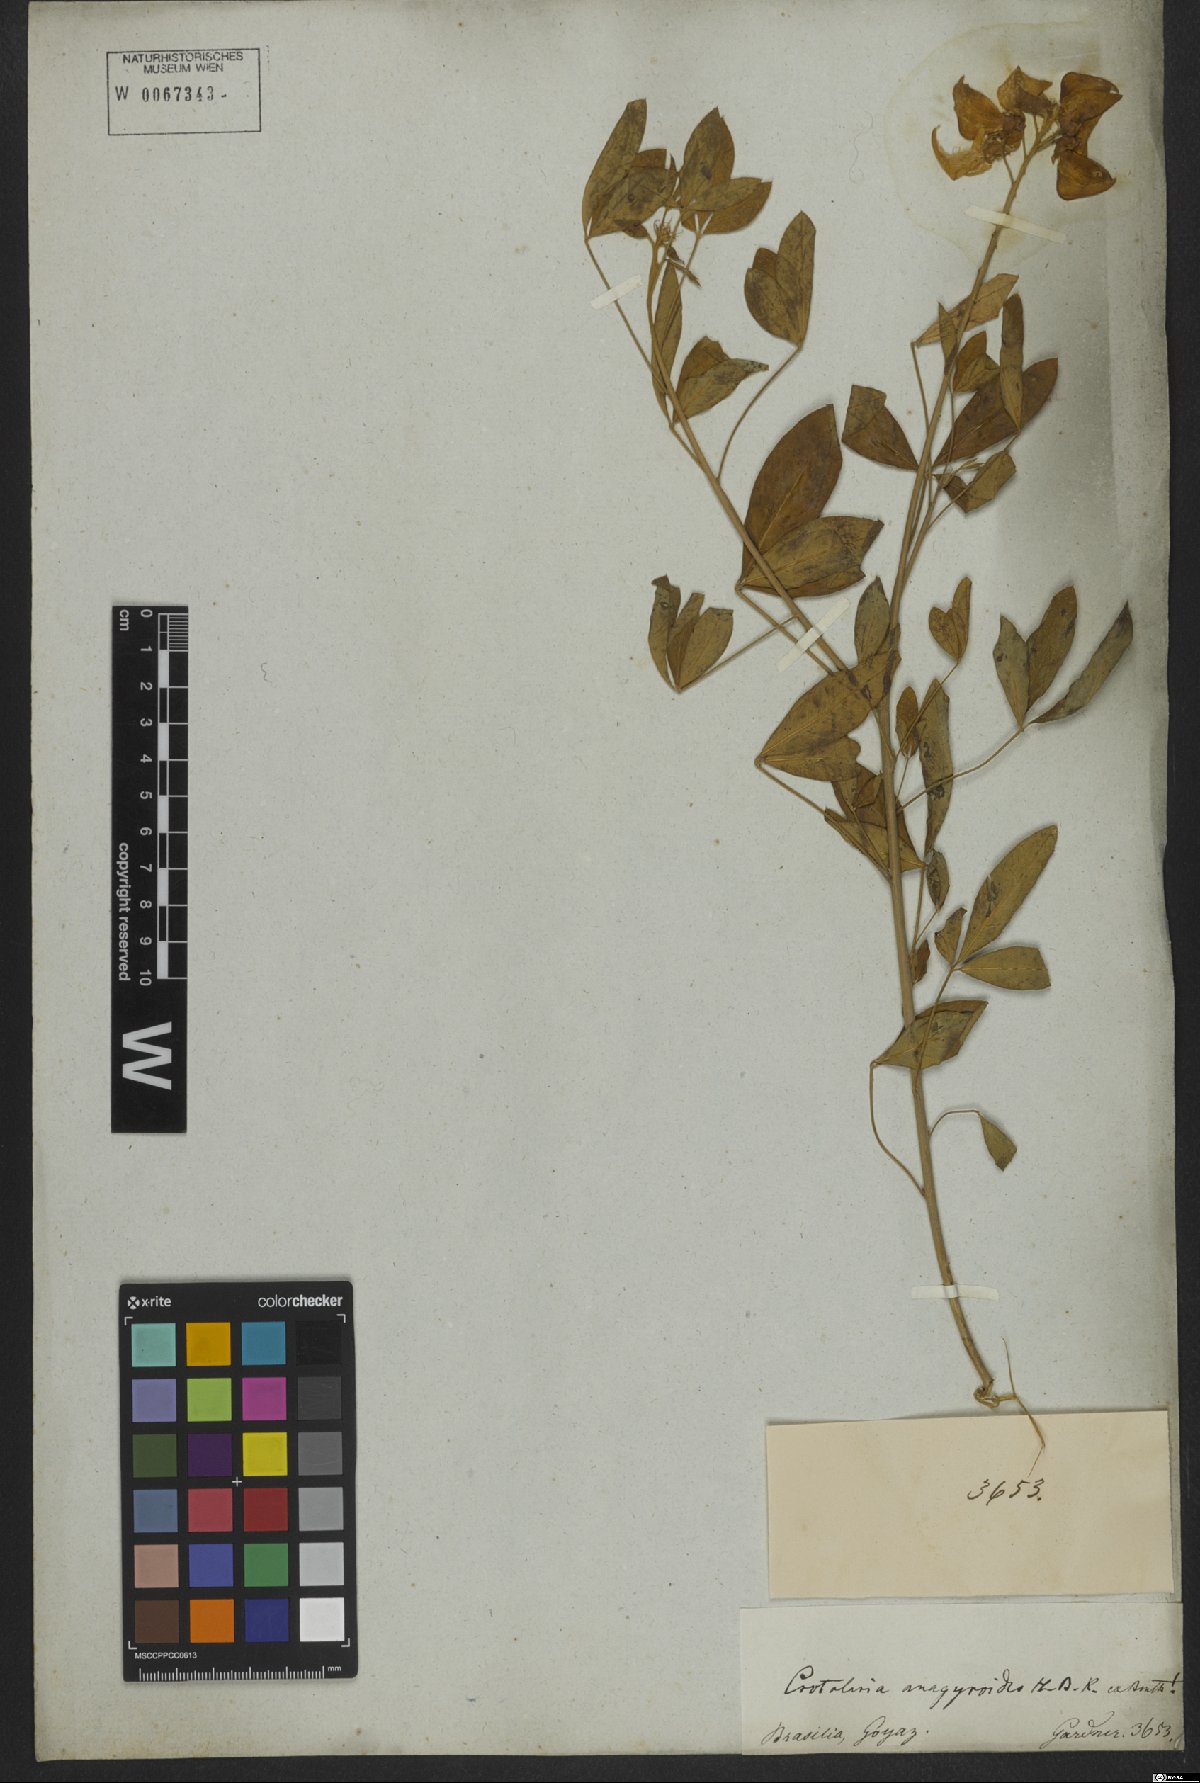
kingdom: Plantae
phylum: Tracheophyta
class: Magnoliopsida
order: Fabales
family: Fabaceae
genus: Crotalaria
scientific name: Crotalaria micans
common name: Caracas rattlebox
